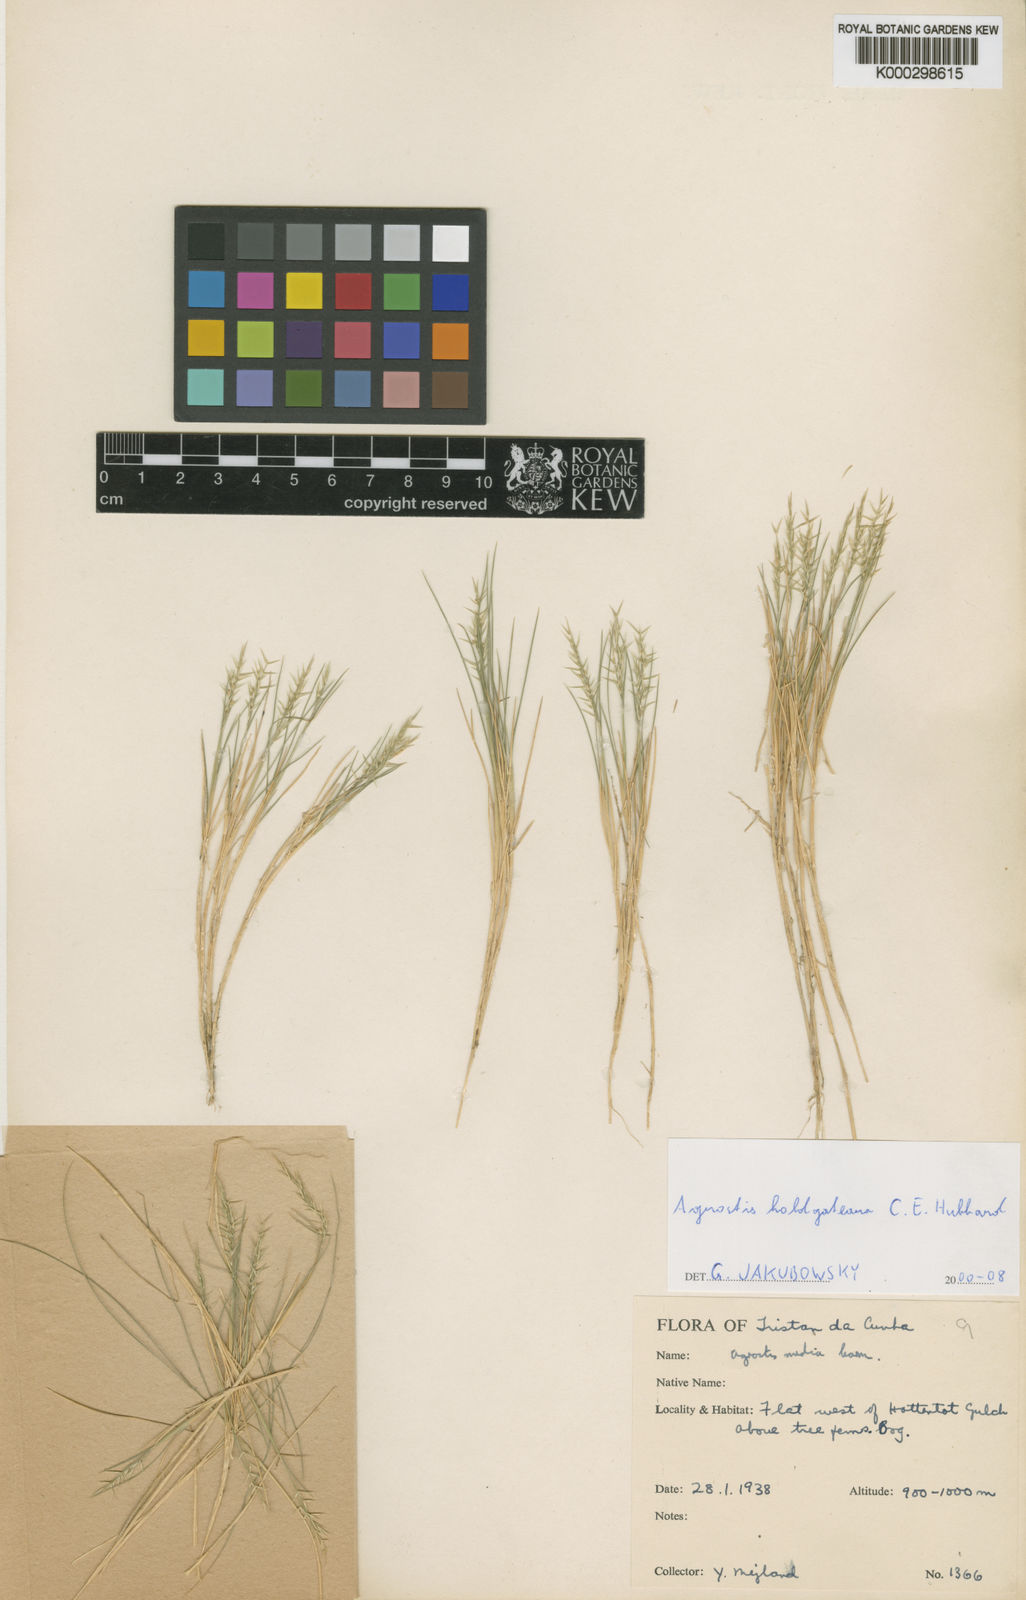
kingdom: Plantae
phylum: Tracheophyta
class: Liliopsida
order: Poales
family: Poaceae
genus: Agrostis
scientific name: Agrostis holgateana
